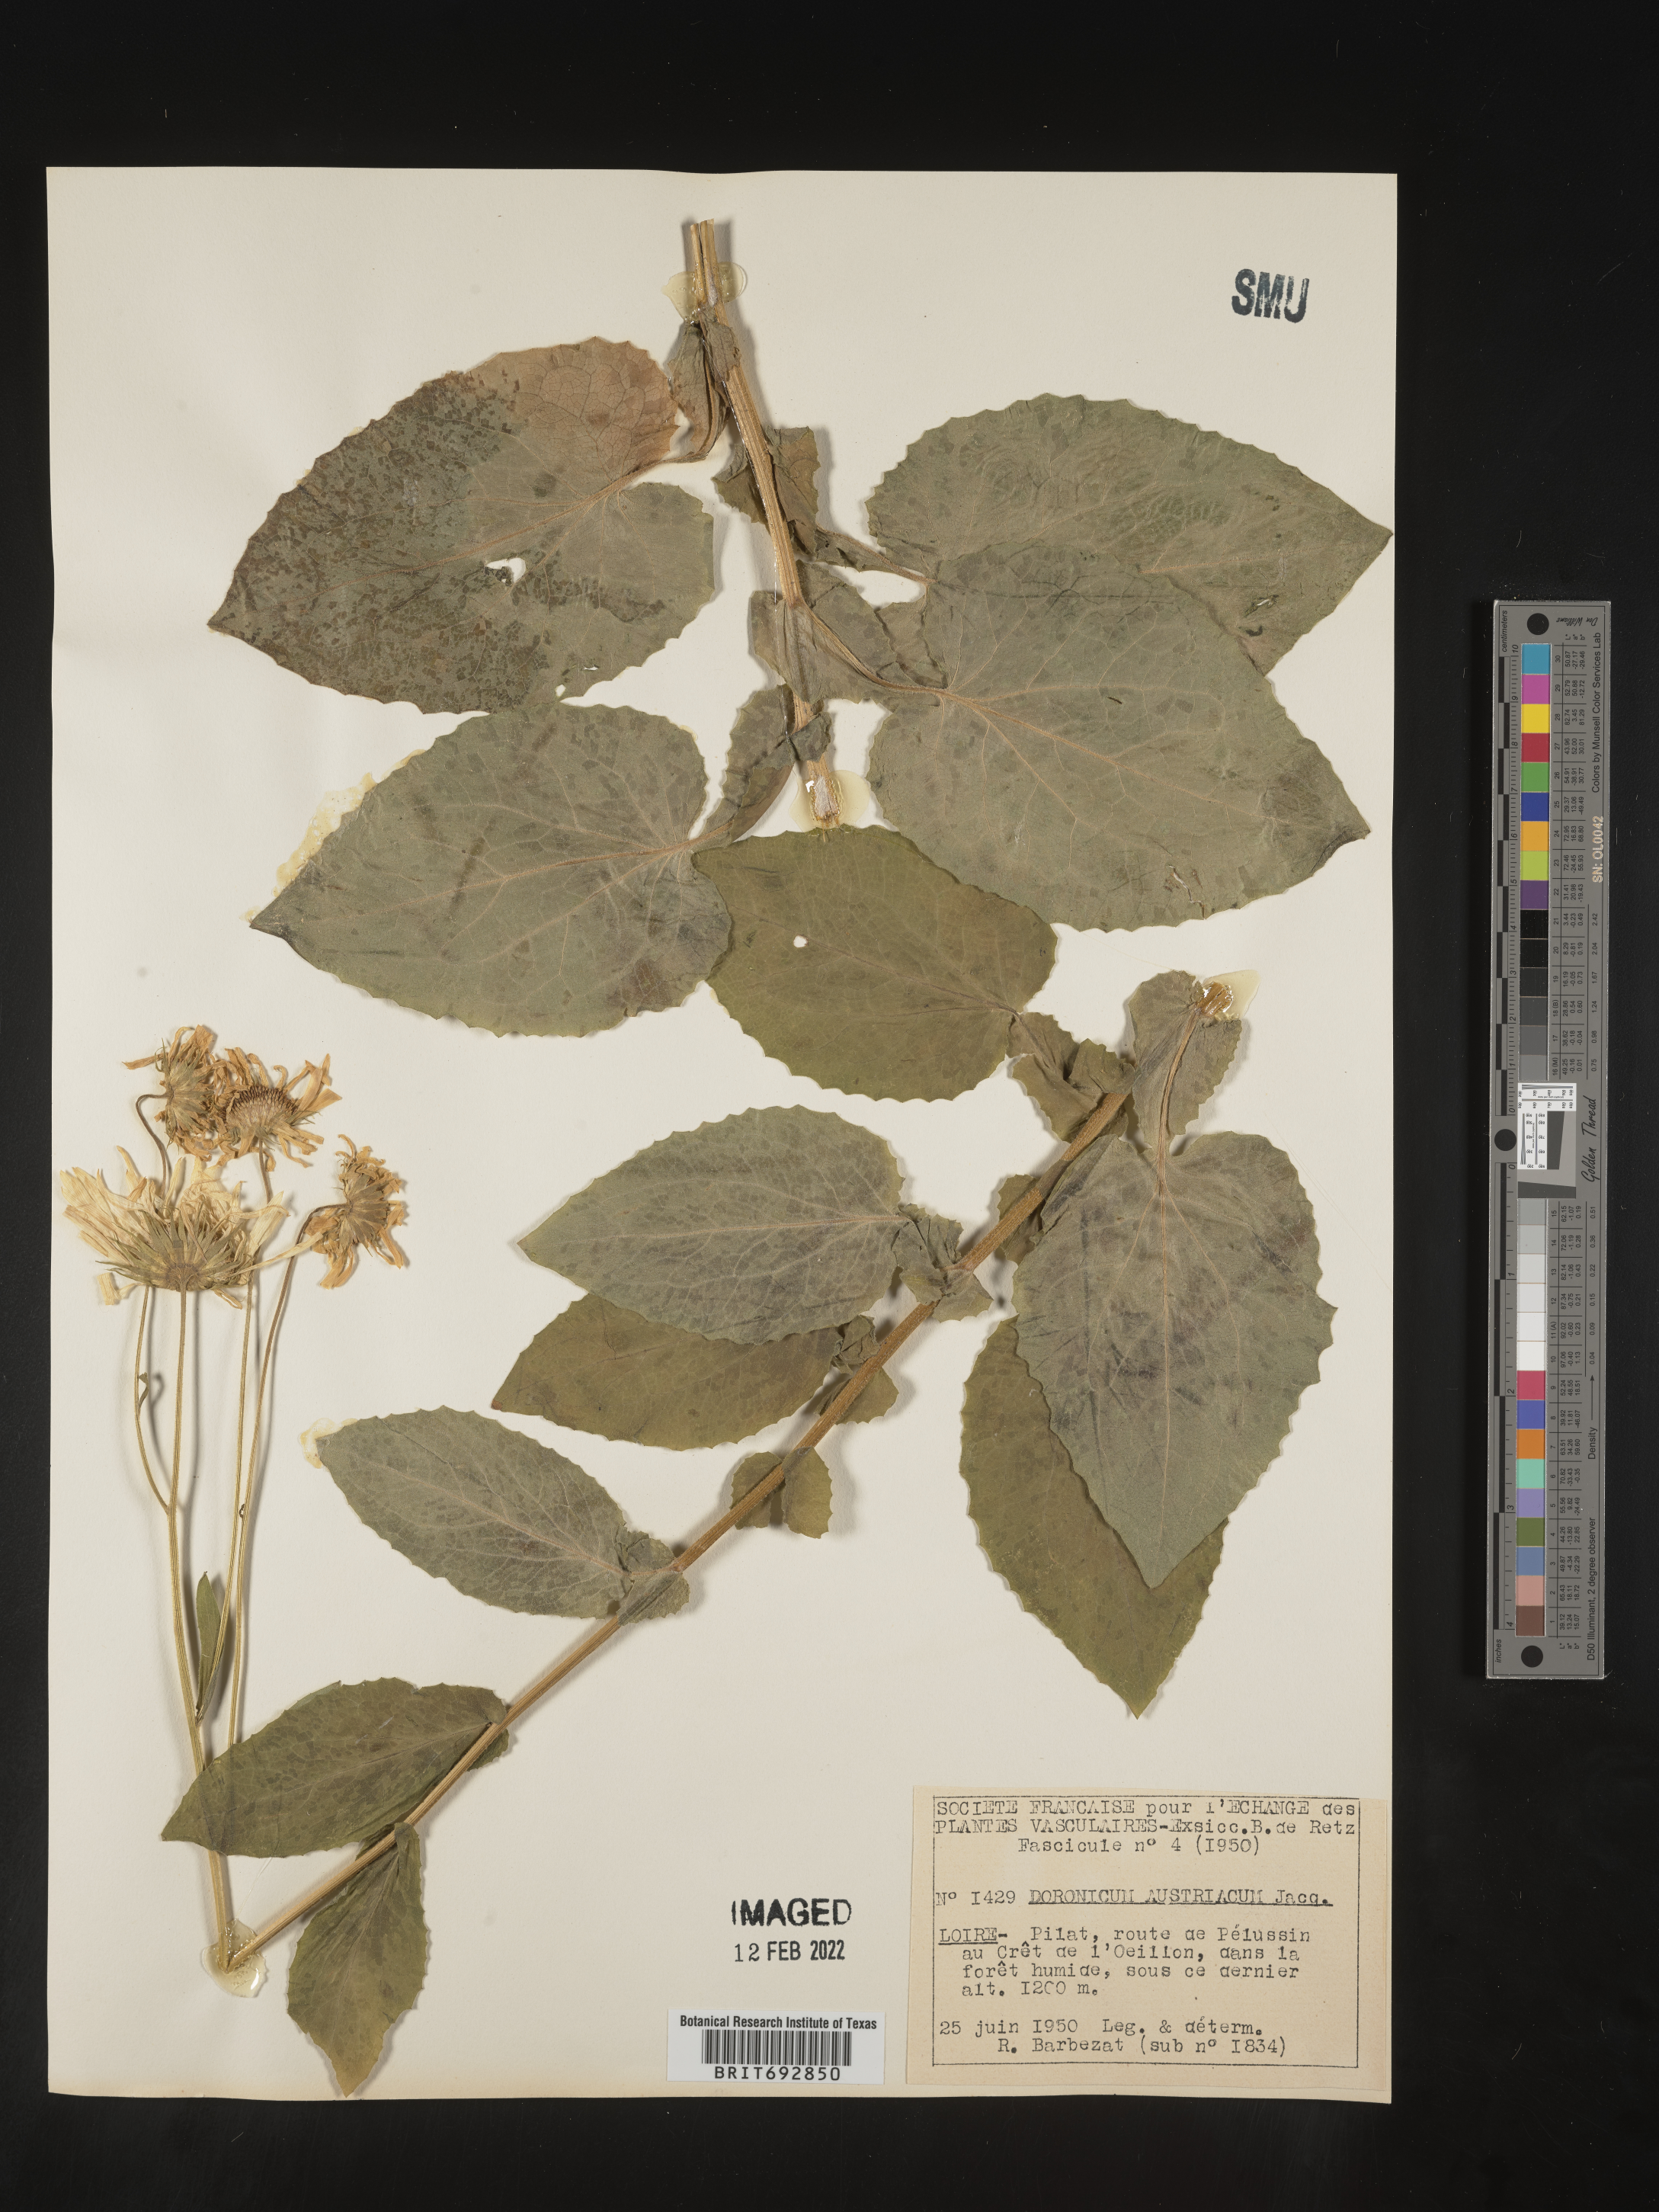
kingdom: Plantae
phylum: Tracheophyta
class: Magnoliopsida
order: Asterales
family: Asteraceae
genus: Doronicum
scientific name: Doronicum
